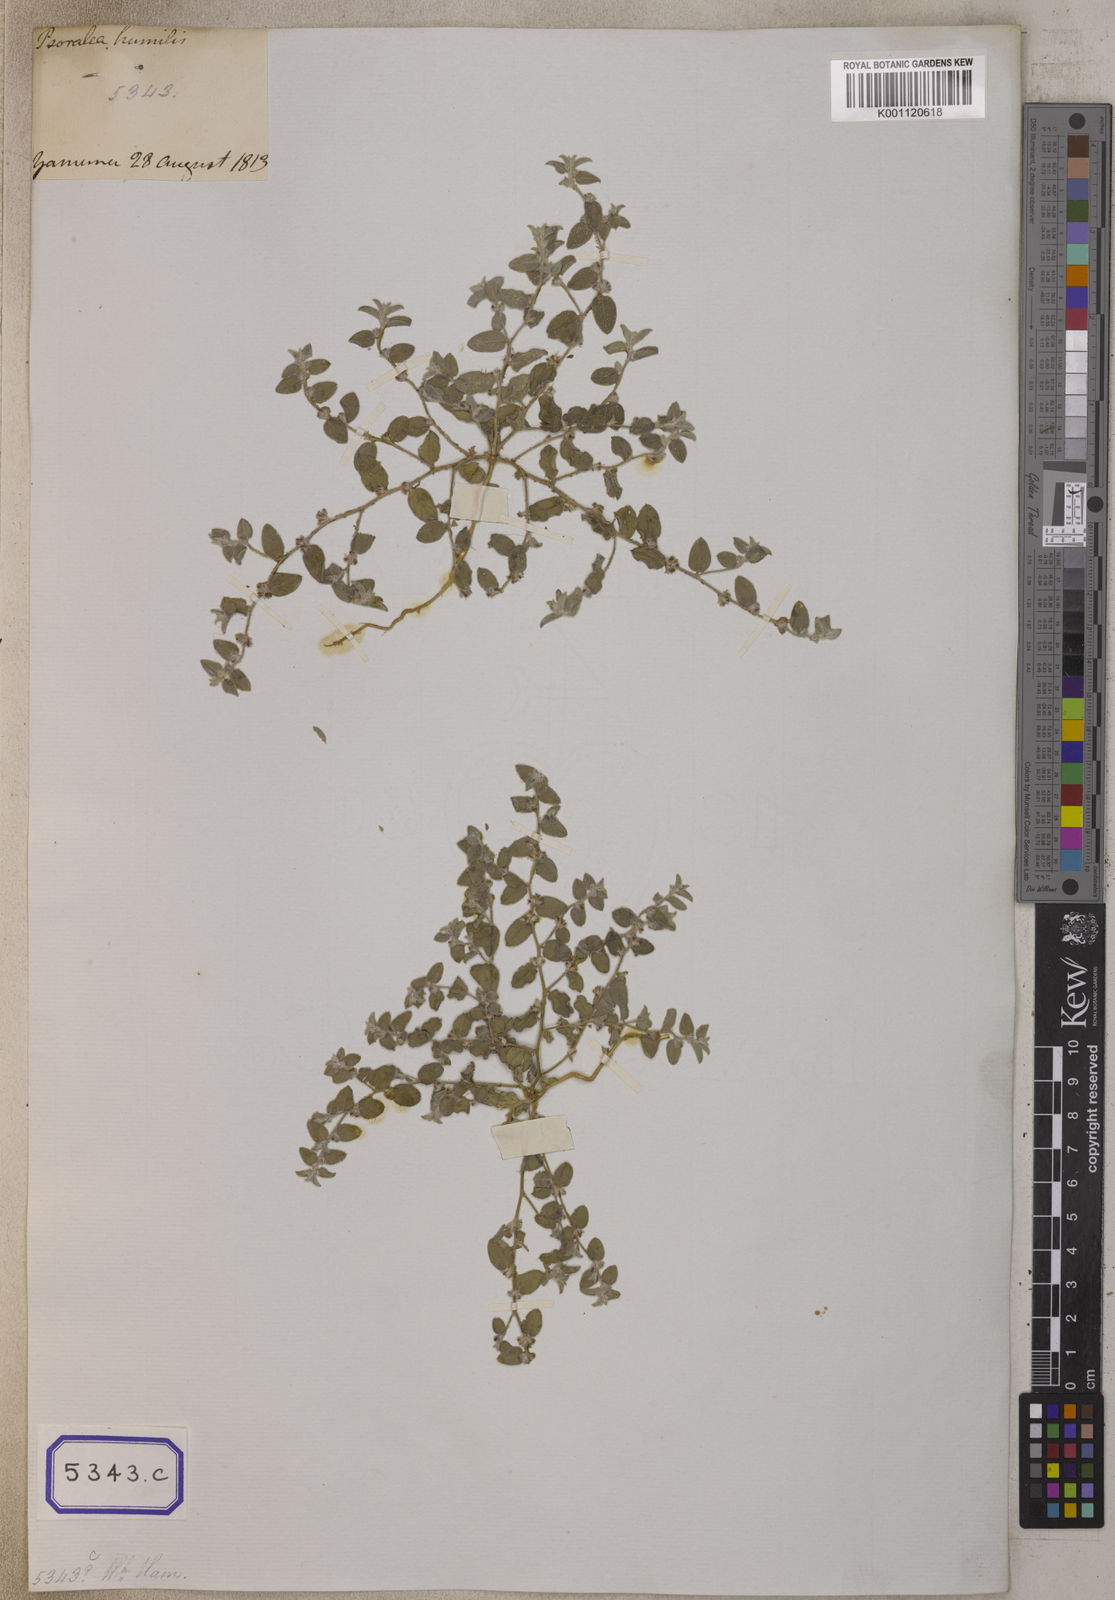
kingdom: Plantae
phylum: Tracheophyta
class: Magnoliopsida
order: Fabales
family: Fabaceae
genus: Indigofera
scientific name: Indigofera cordifolia
